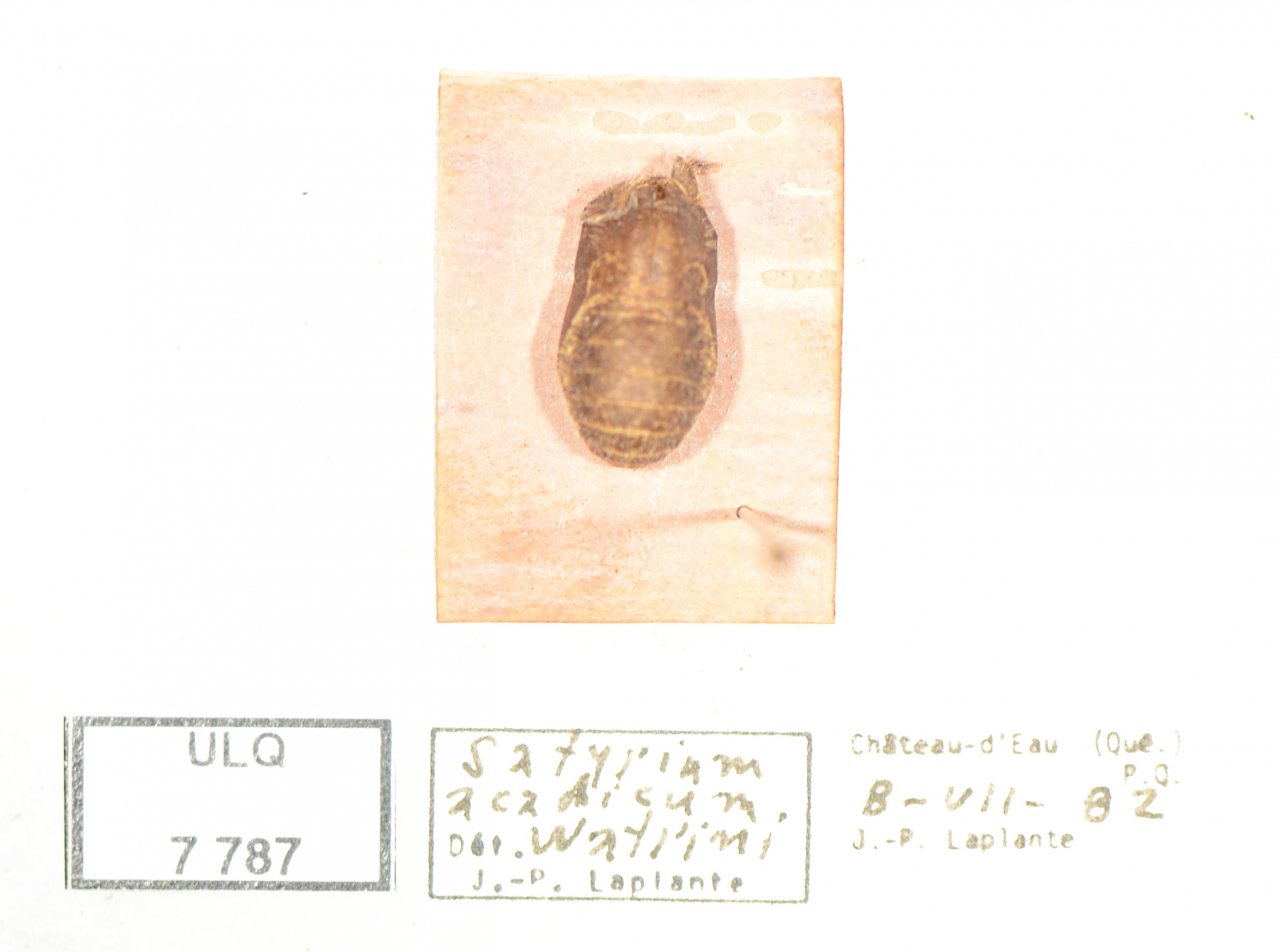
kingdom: Animalia
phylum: Arthropoda
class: Insecta
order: Lepidoptera
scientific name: Lepidoptera
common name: Butterflies
